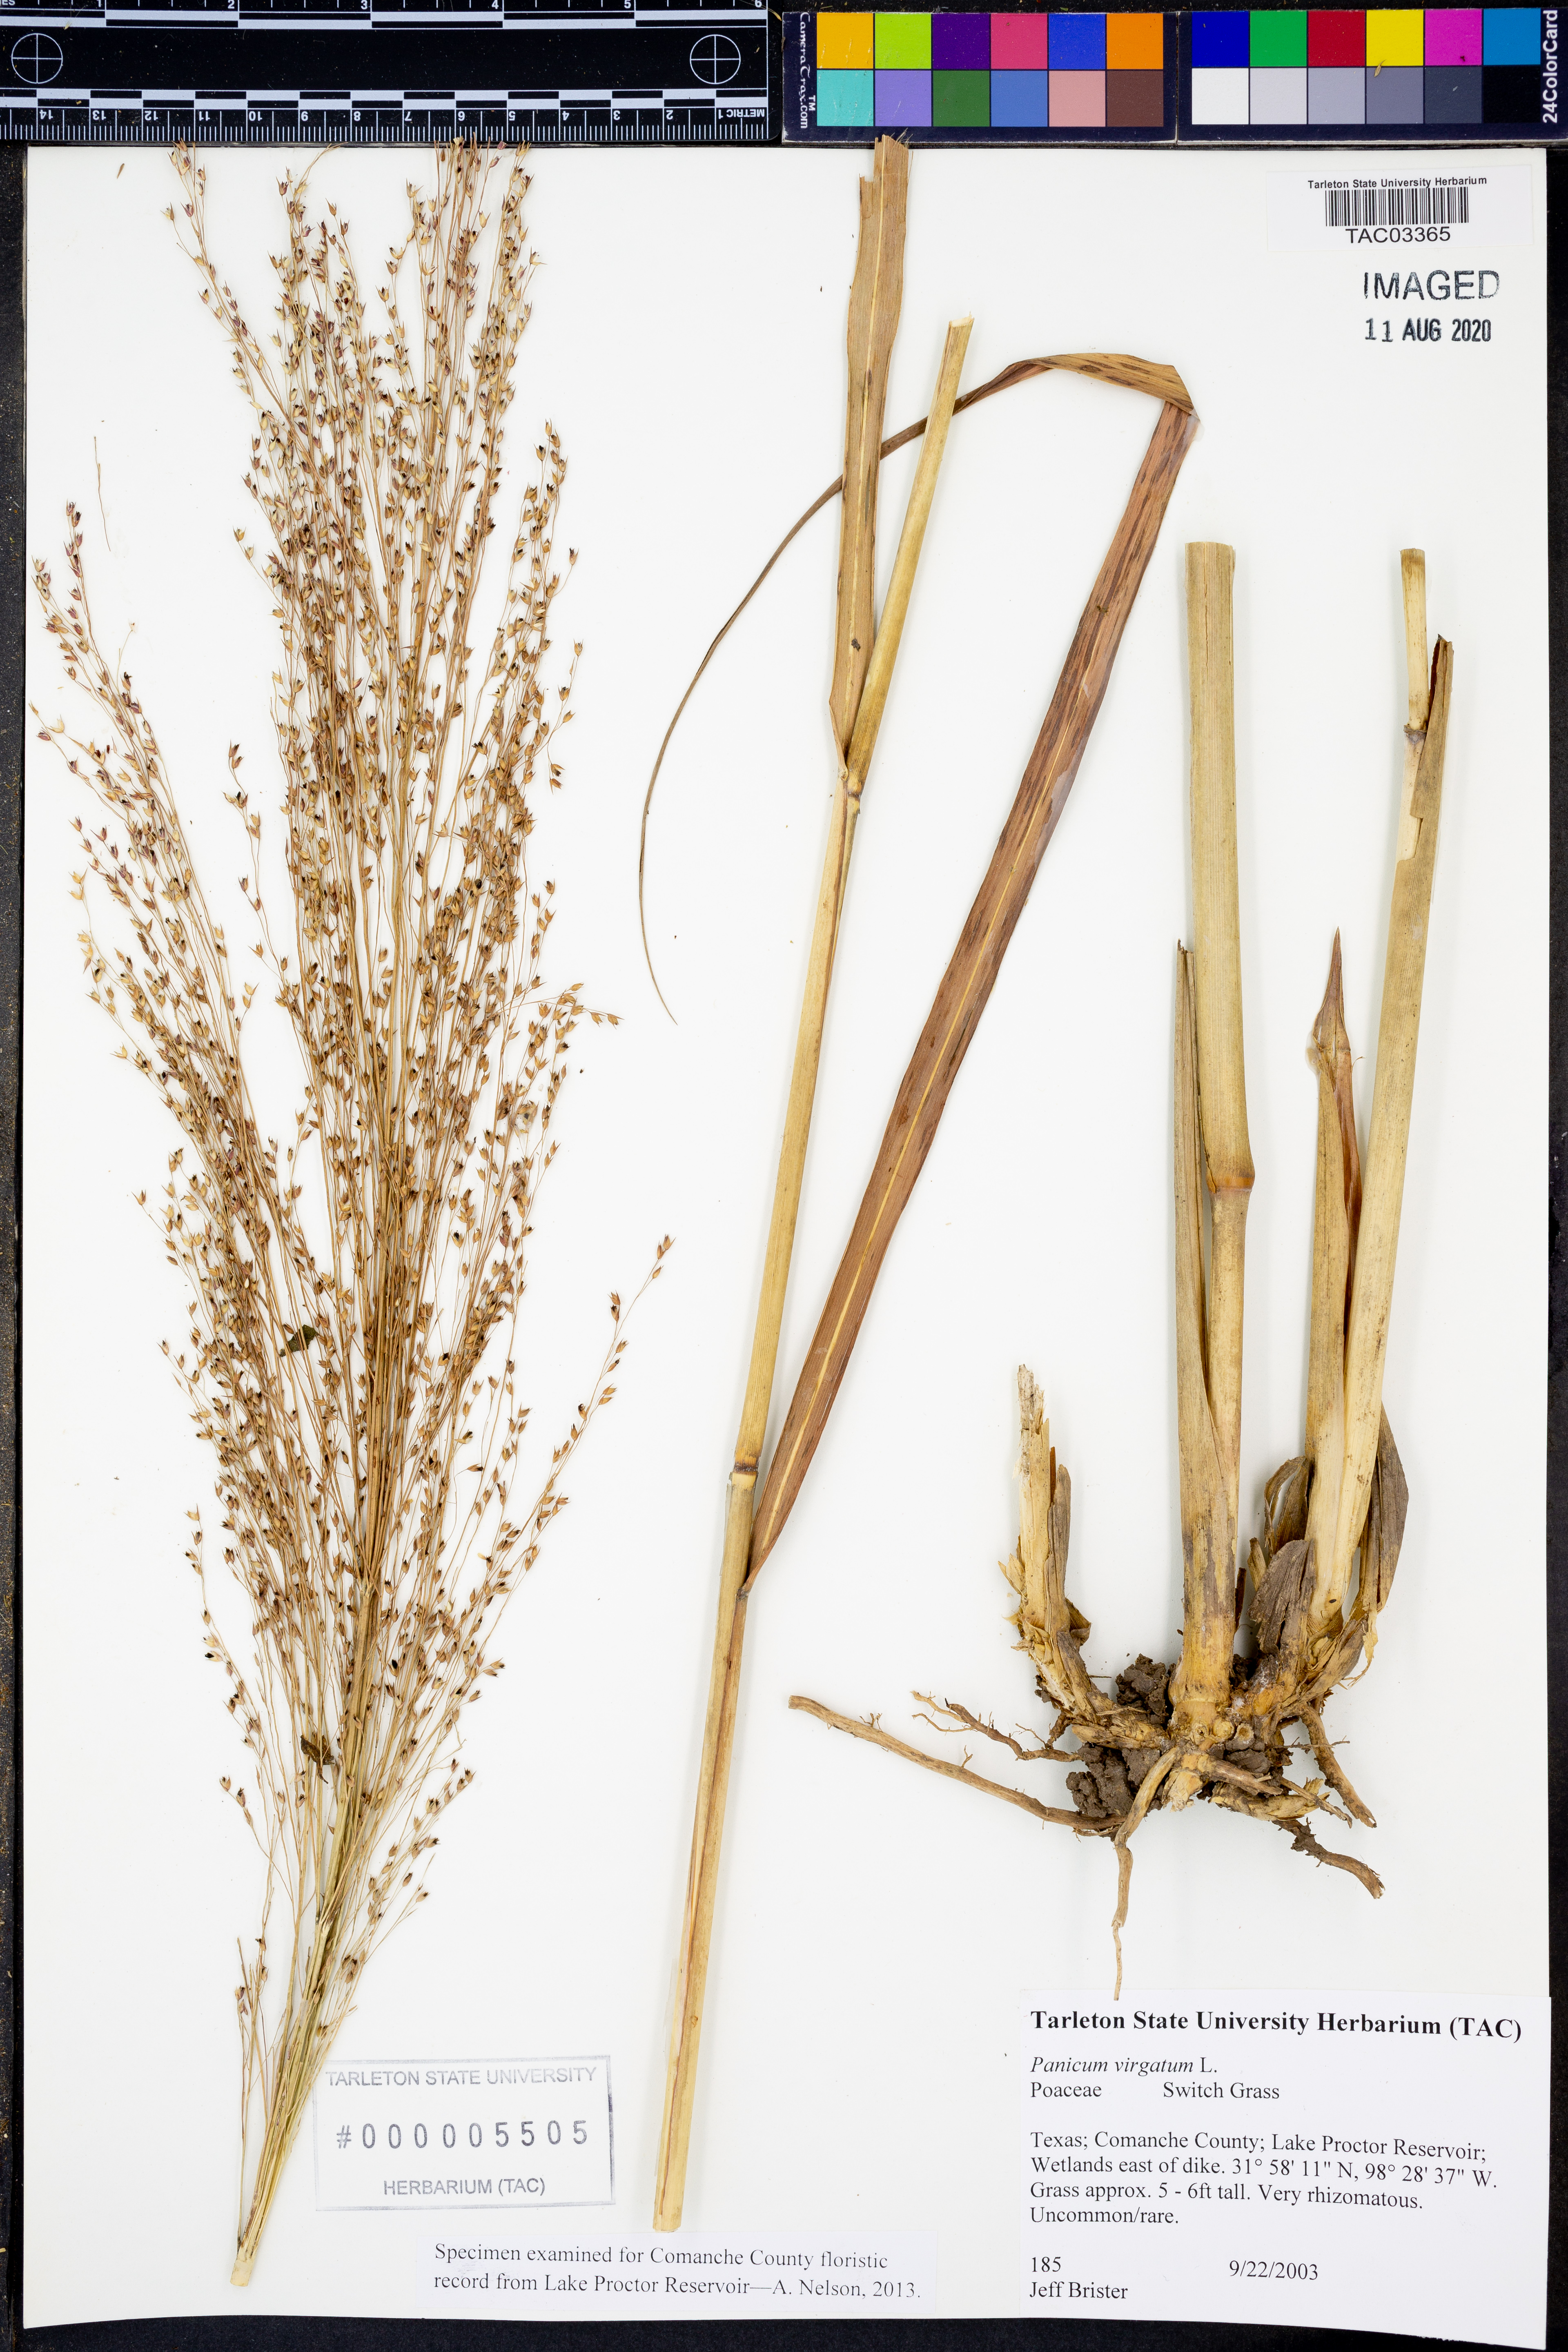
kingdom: Plantae
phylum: Tracheophyta
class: Liliopsida
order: Poales
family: Poaceae
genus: Panicum
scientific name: Panicum virgatum
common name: Switchgrass
